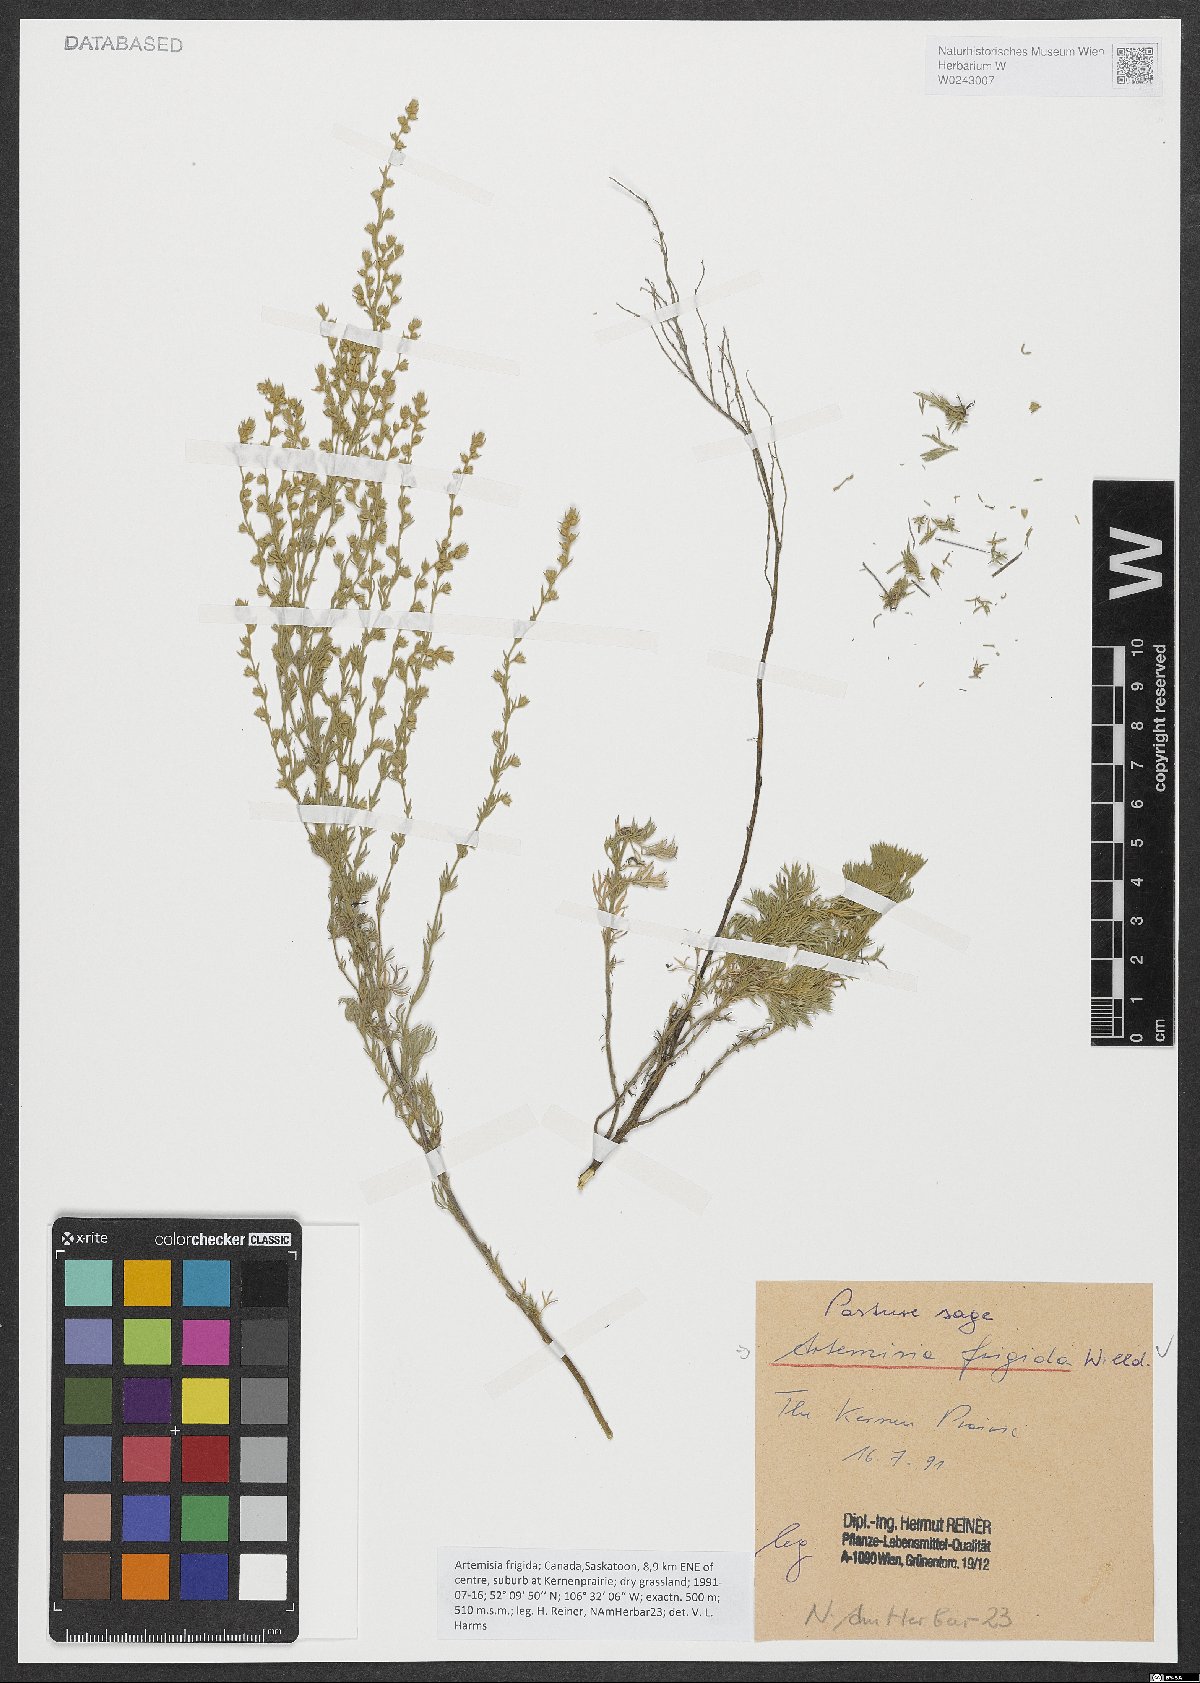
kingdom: Plantae
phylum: Tracheophyta
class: Magnoliopsida
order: Asterales
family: Asteraceae
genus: Artemisia
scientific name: Artemisia frigida
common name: Prairie sagewort
